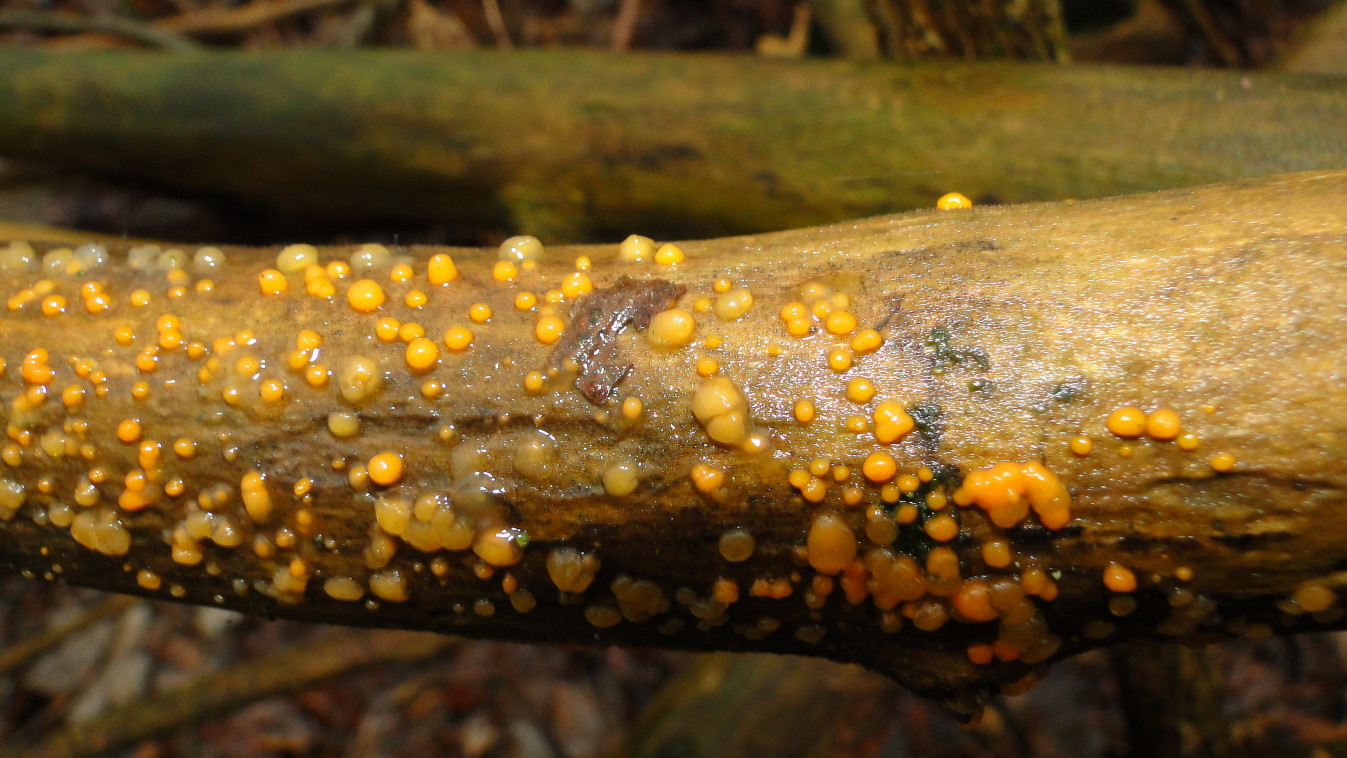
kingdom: Fungi
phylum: Basidiomycota
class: Dacrymycetes
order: Dacrymycetales
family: Dacrymycetaceae
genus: Dacrymyces
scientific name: Dacrymyces stillatus
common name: almindelig tåresvamp
